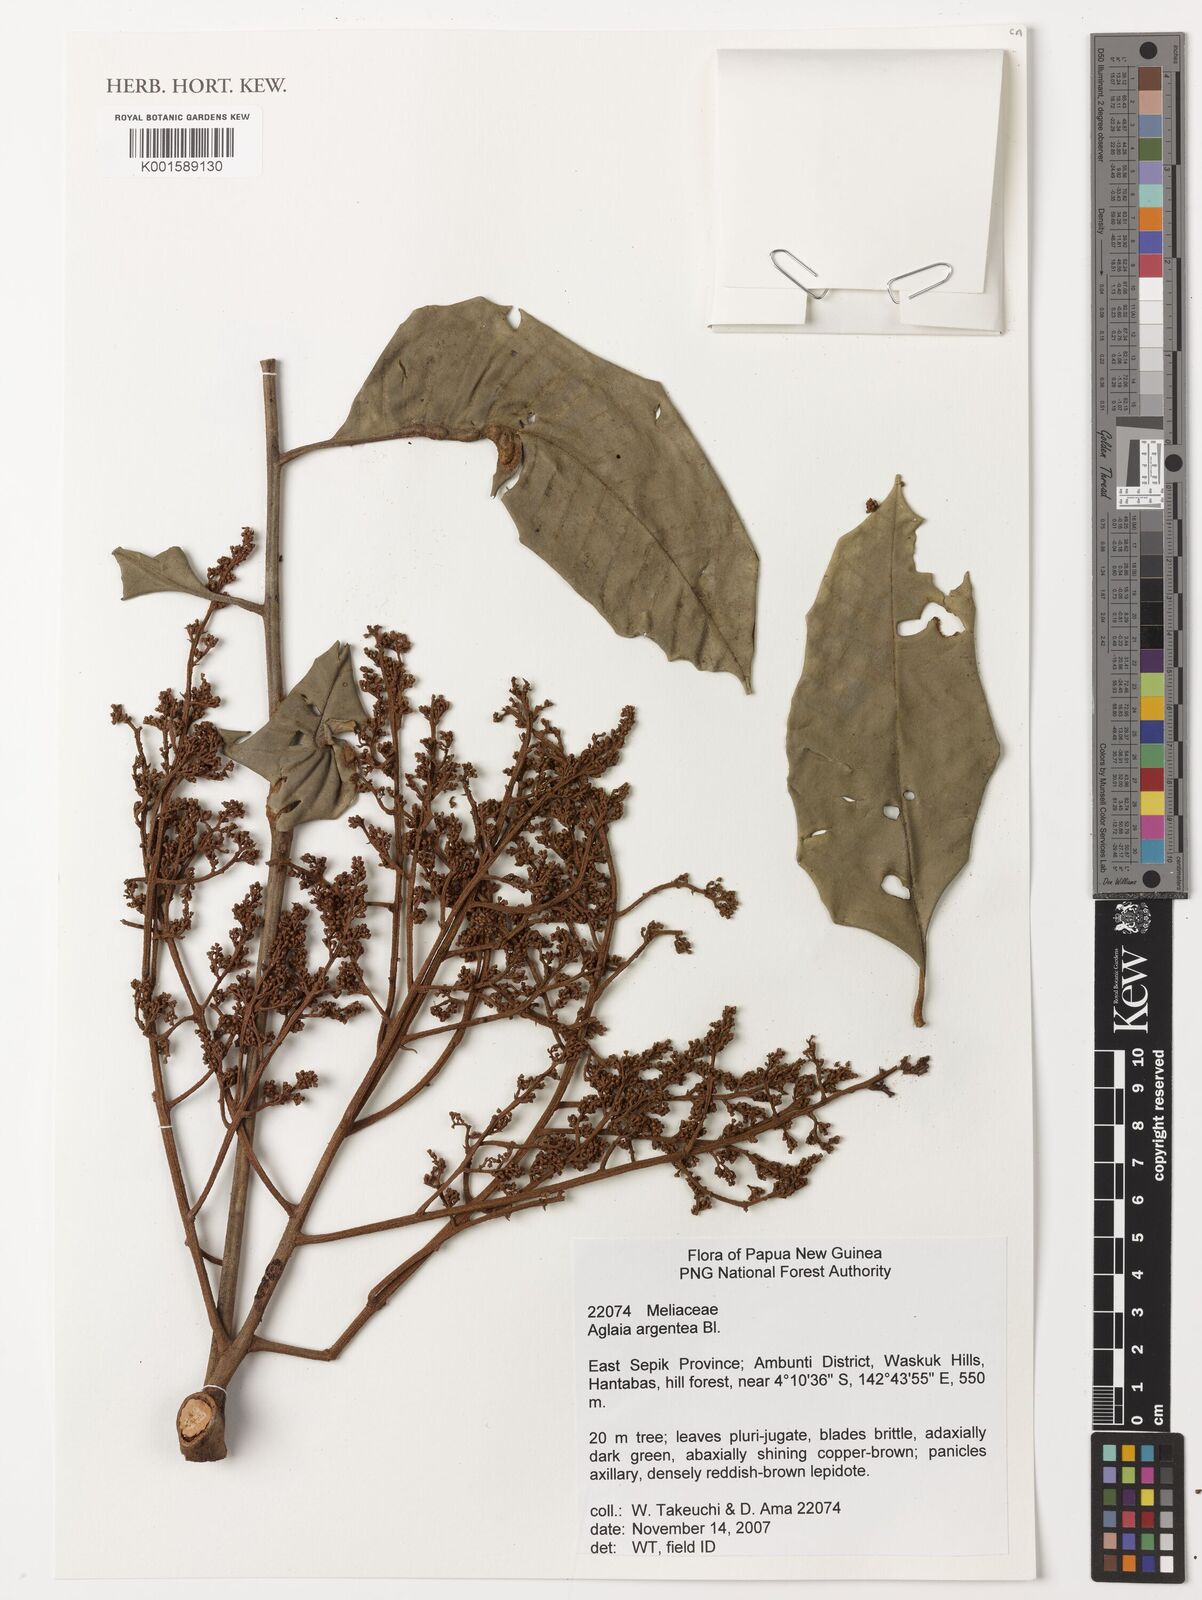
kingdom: Plantae
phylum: Tracheophyta
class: Magnoliopsida
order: Sapindales
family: Meliaceae
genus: Aglaia
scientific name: Aglaia argentea
